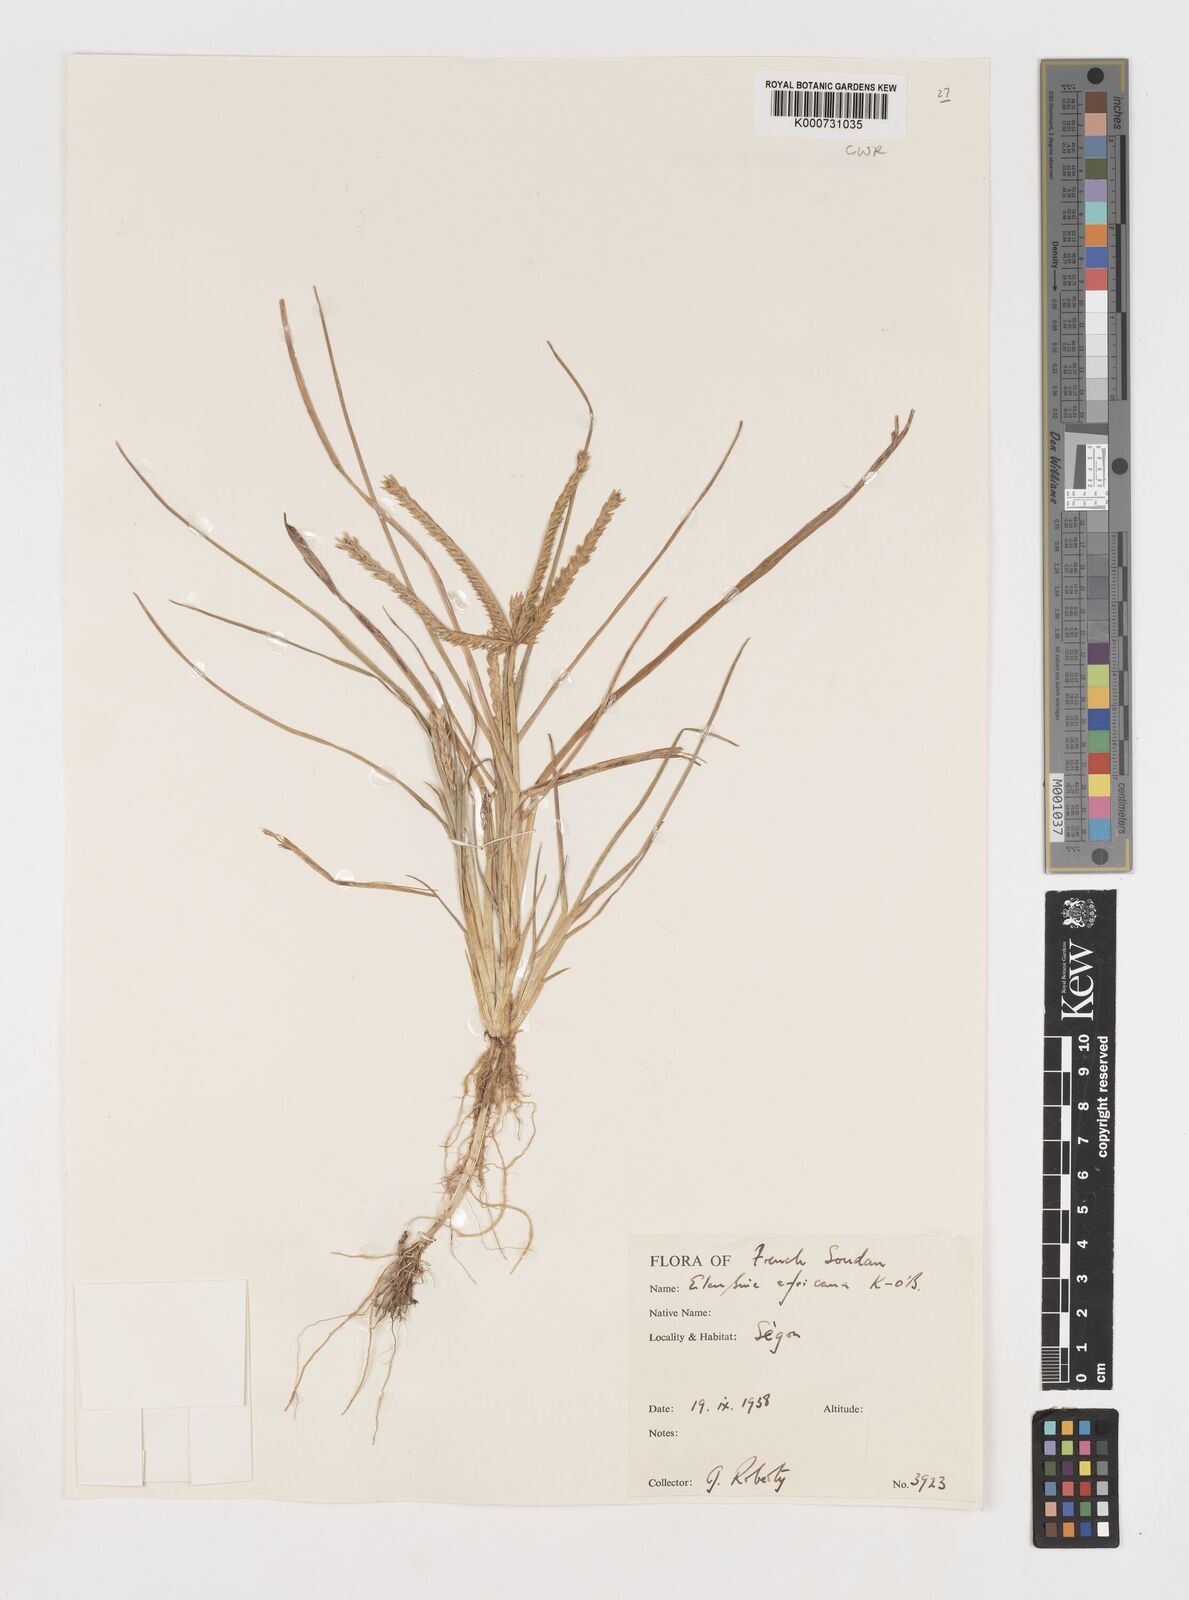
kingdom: Plantae
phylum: Tracheophyta
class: Liliopsida
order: Poales
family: Poaceae
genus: Eleusine
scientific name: Eleusine africana
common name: Wild african finger millet
